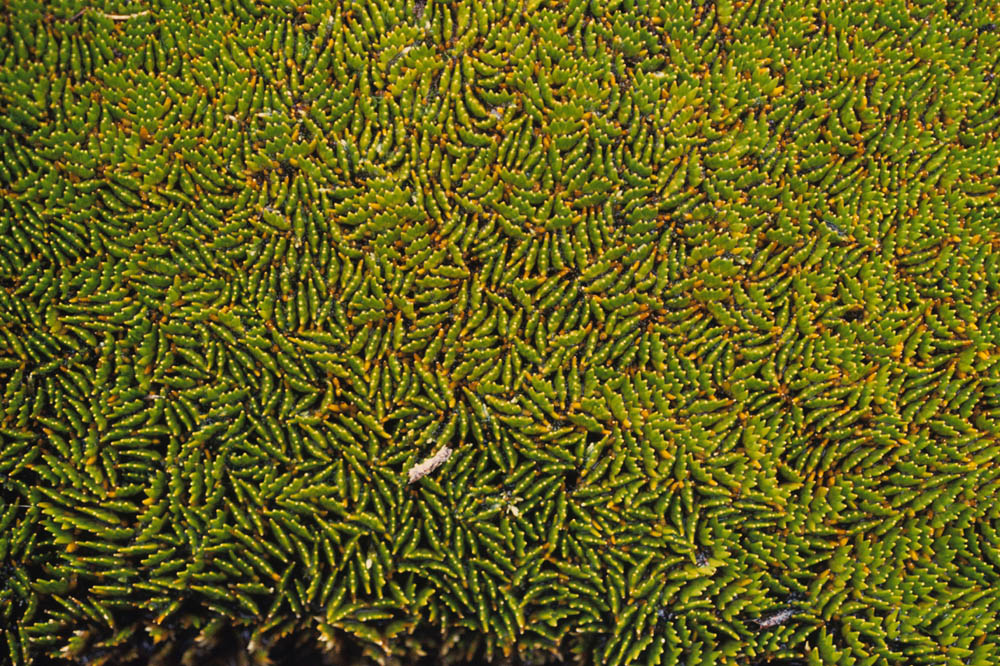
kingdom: Plantae
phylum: Tracheophyta
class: Liliopsida
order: Poales
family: Juncaceae
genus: Distichia
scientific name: Distichia muscoides
